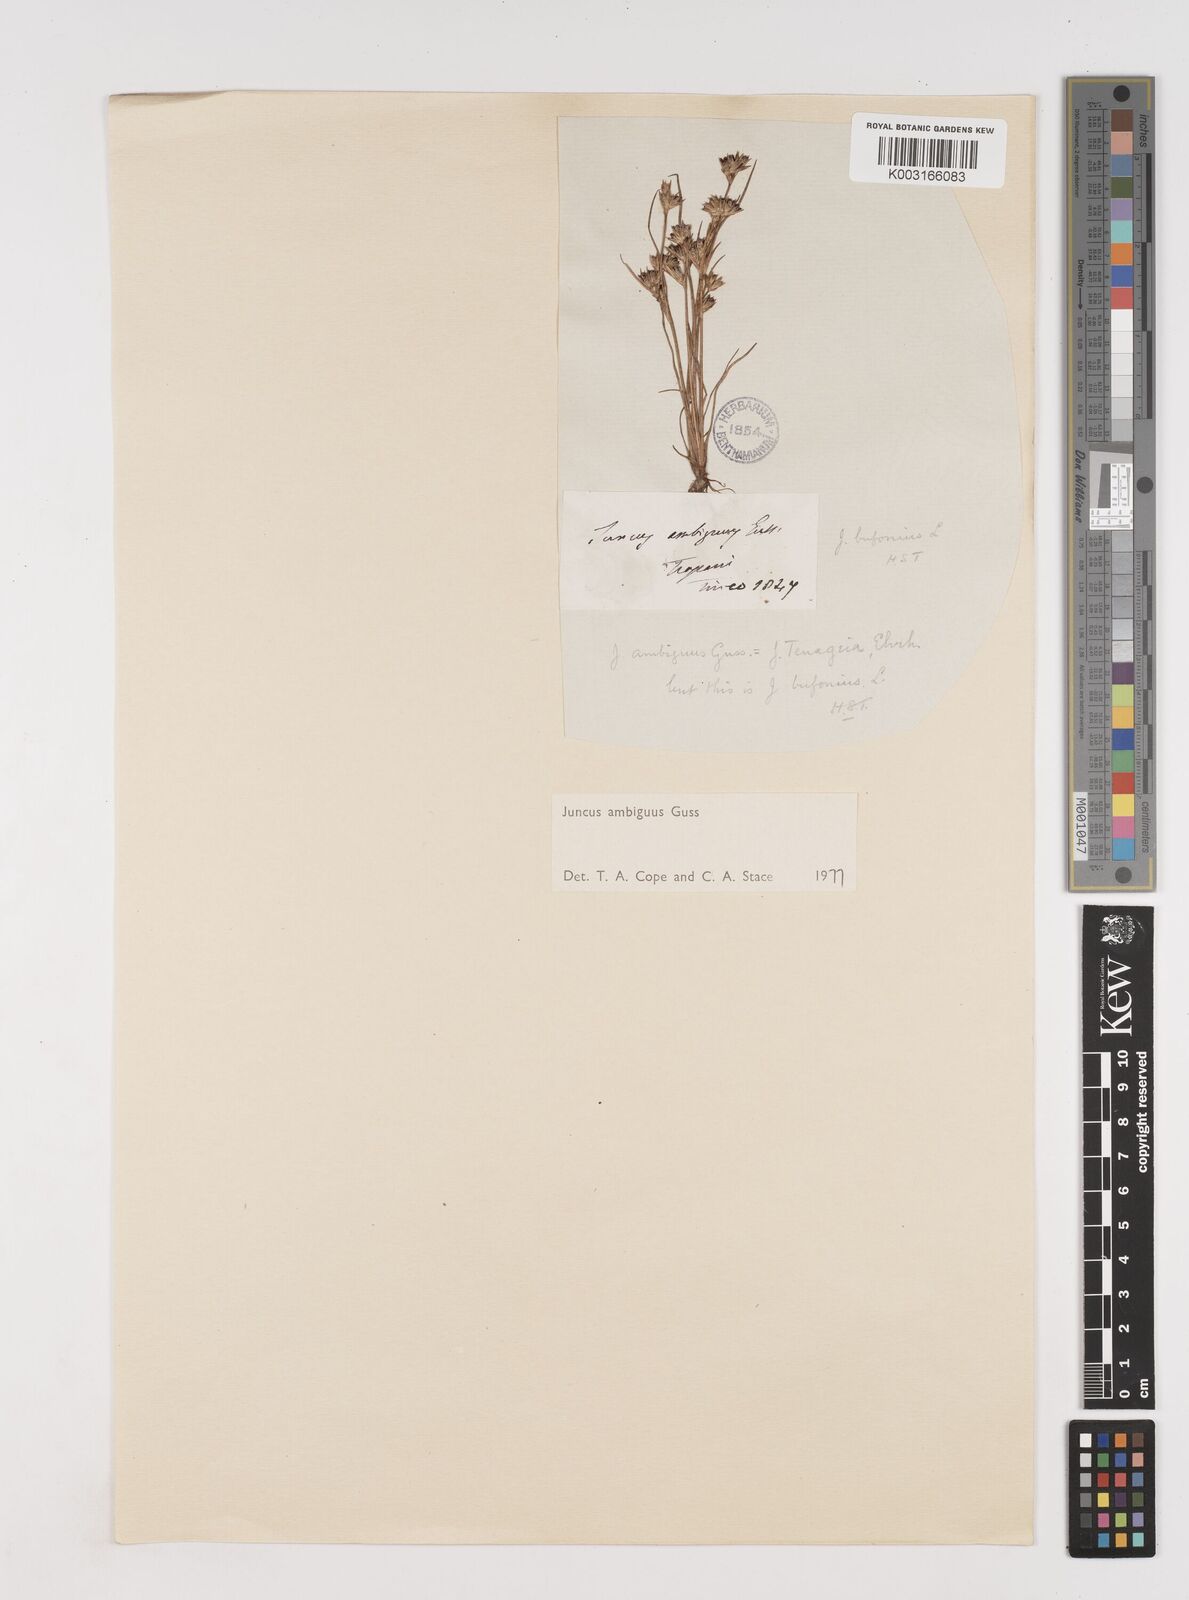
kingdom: Plantae
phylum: Tracheophyta
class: Liliopsida
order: Poales
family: Juncaceae
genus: Juncus
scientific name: Juncus hybridus
